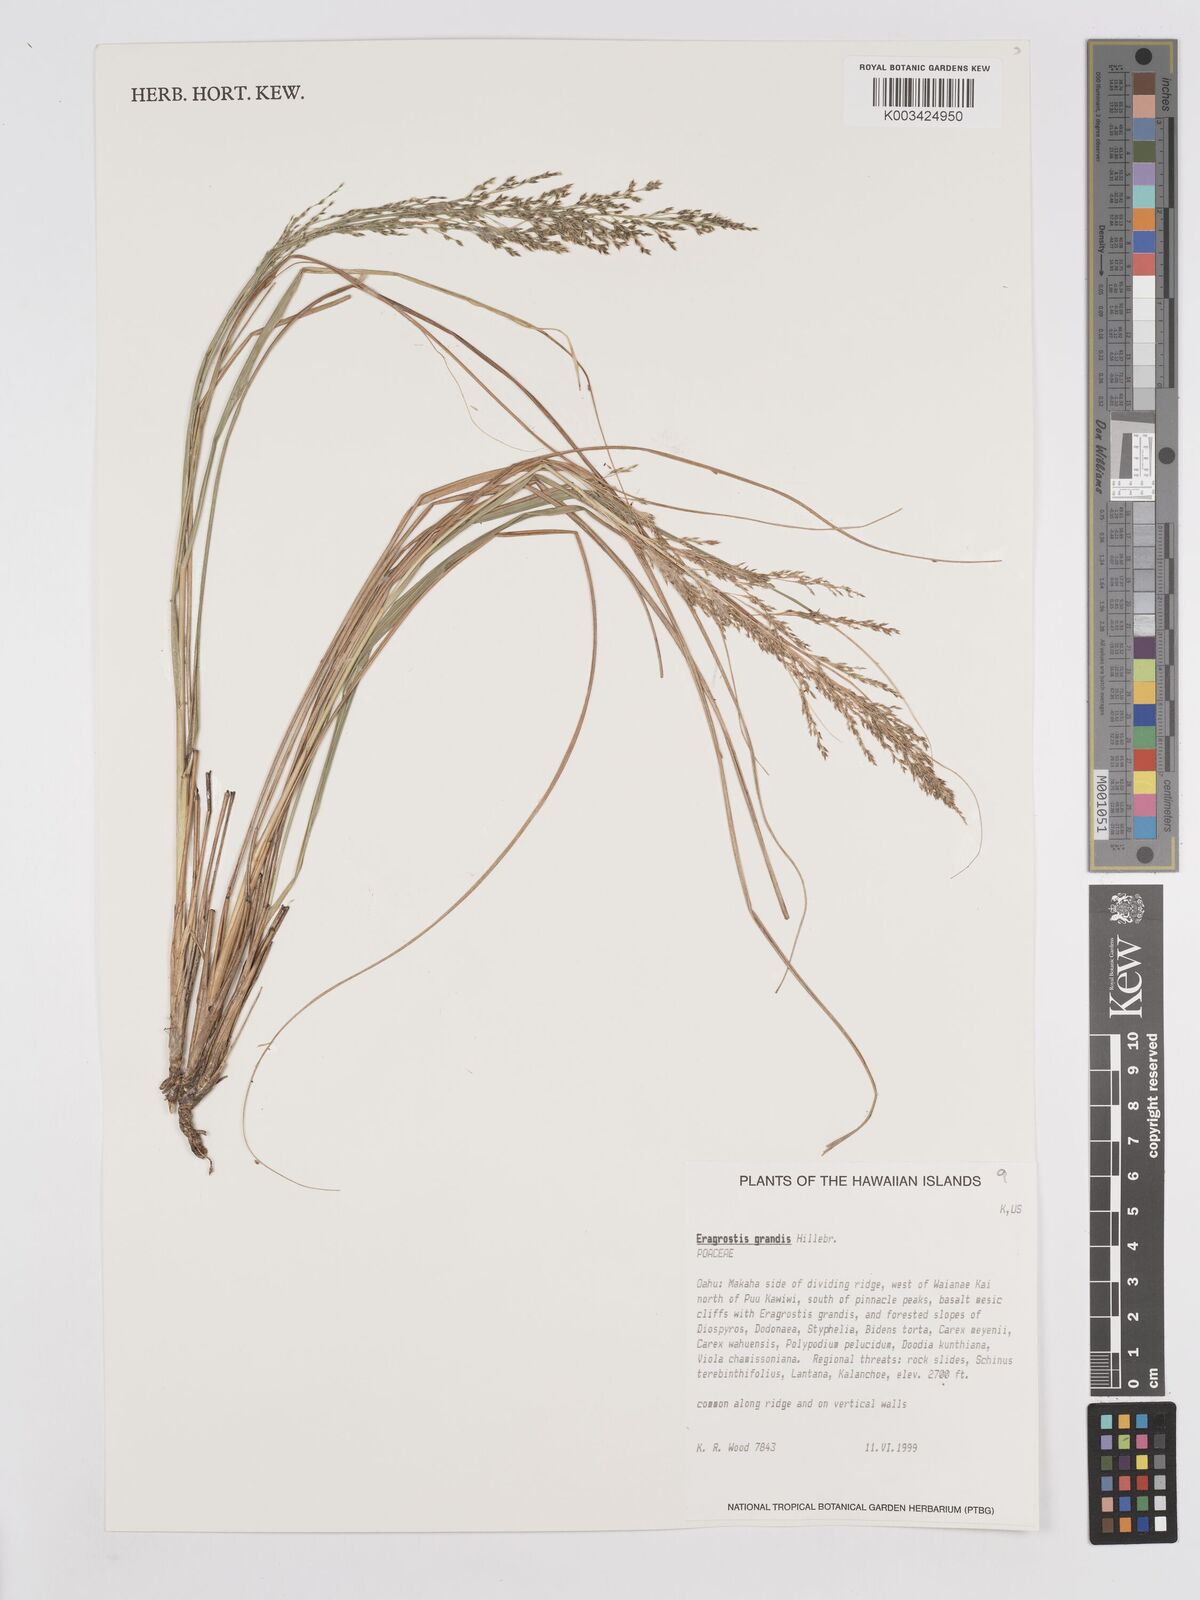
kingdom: Plantae
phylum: Tracheophyta
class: Liliopsida
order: Poales
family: Poaceae
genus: Eragrostis
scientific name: Eragrostis grandis
